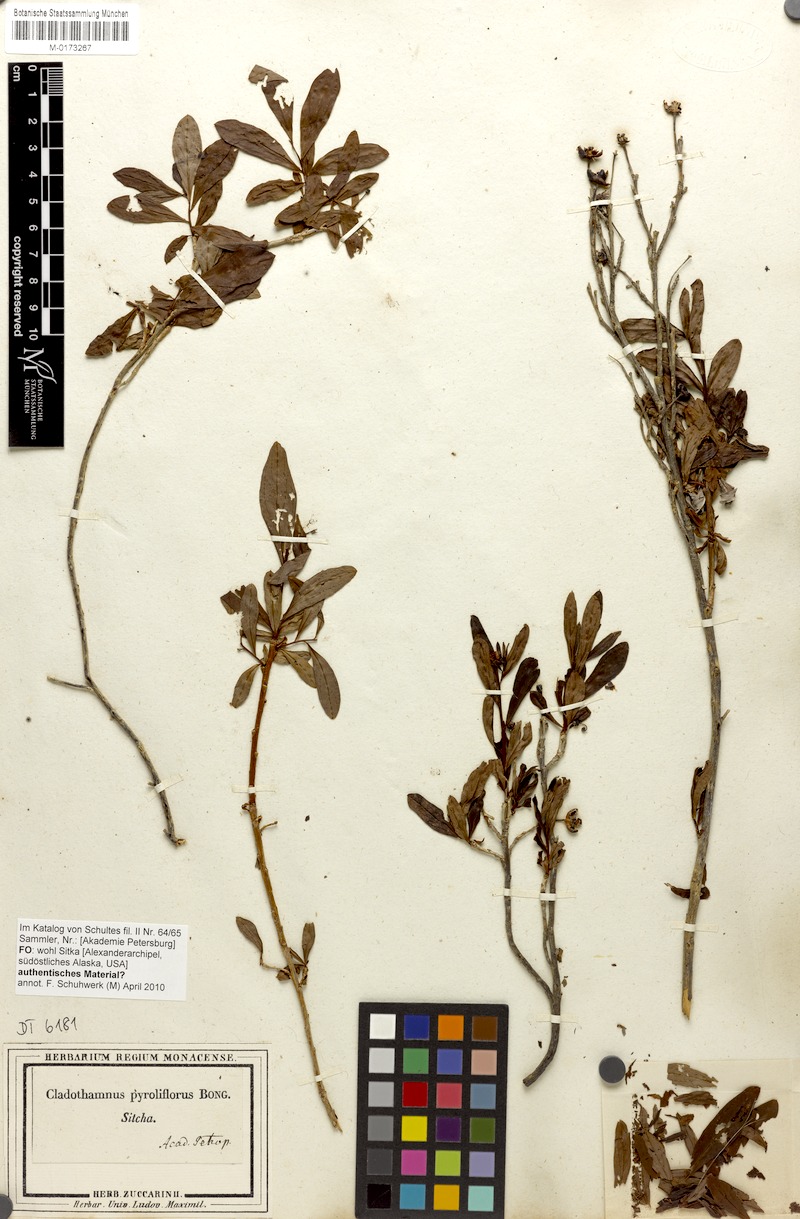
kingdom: Plantae
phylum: Tracheophyta
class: Magnoliopsida
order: Ericales
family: Ericaceae
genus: Elliottia
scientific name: Elliottia pyroliflora
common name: Copperbush
